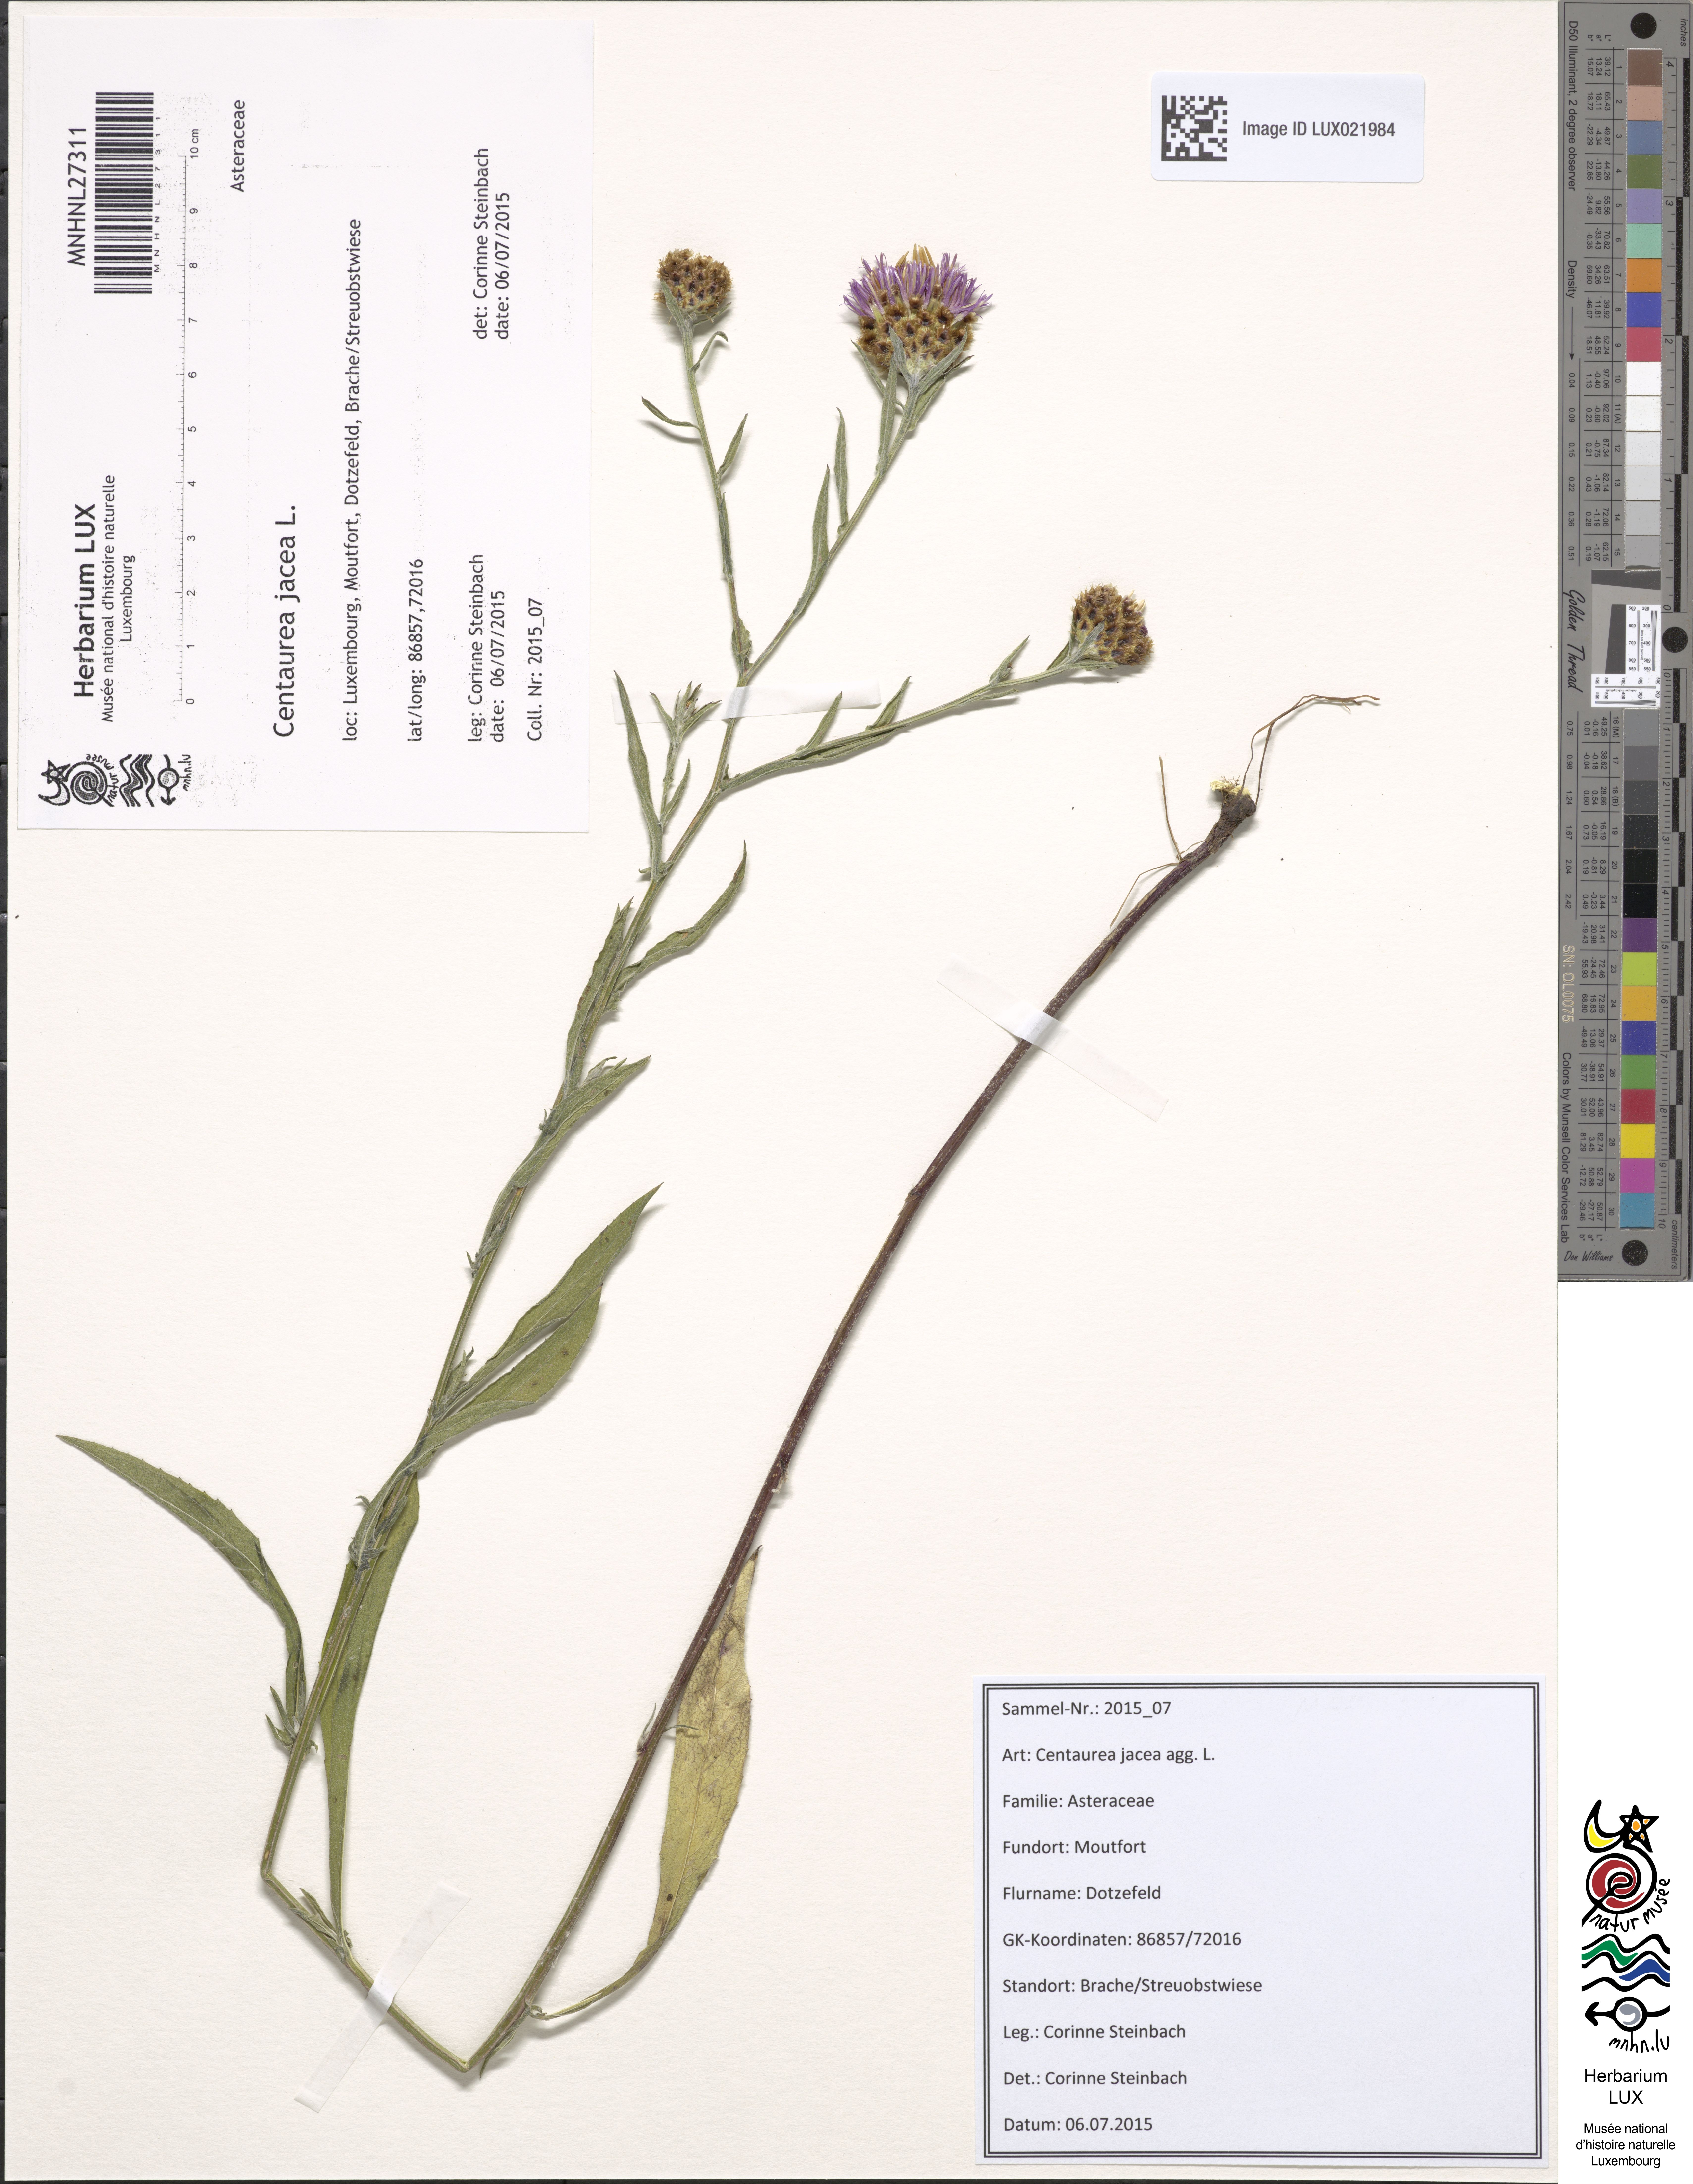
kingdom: Plantae
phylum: Tracheophyta
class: Magnoliopsida
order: Asterales
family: Asteraceae
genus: Centaurea
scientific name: Centaurea jacea
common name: Brown knapweed
